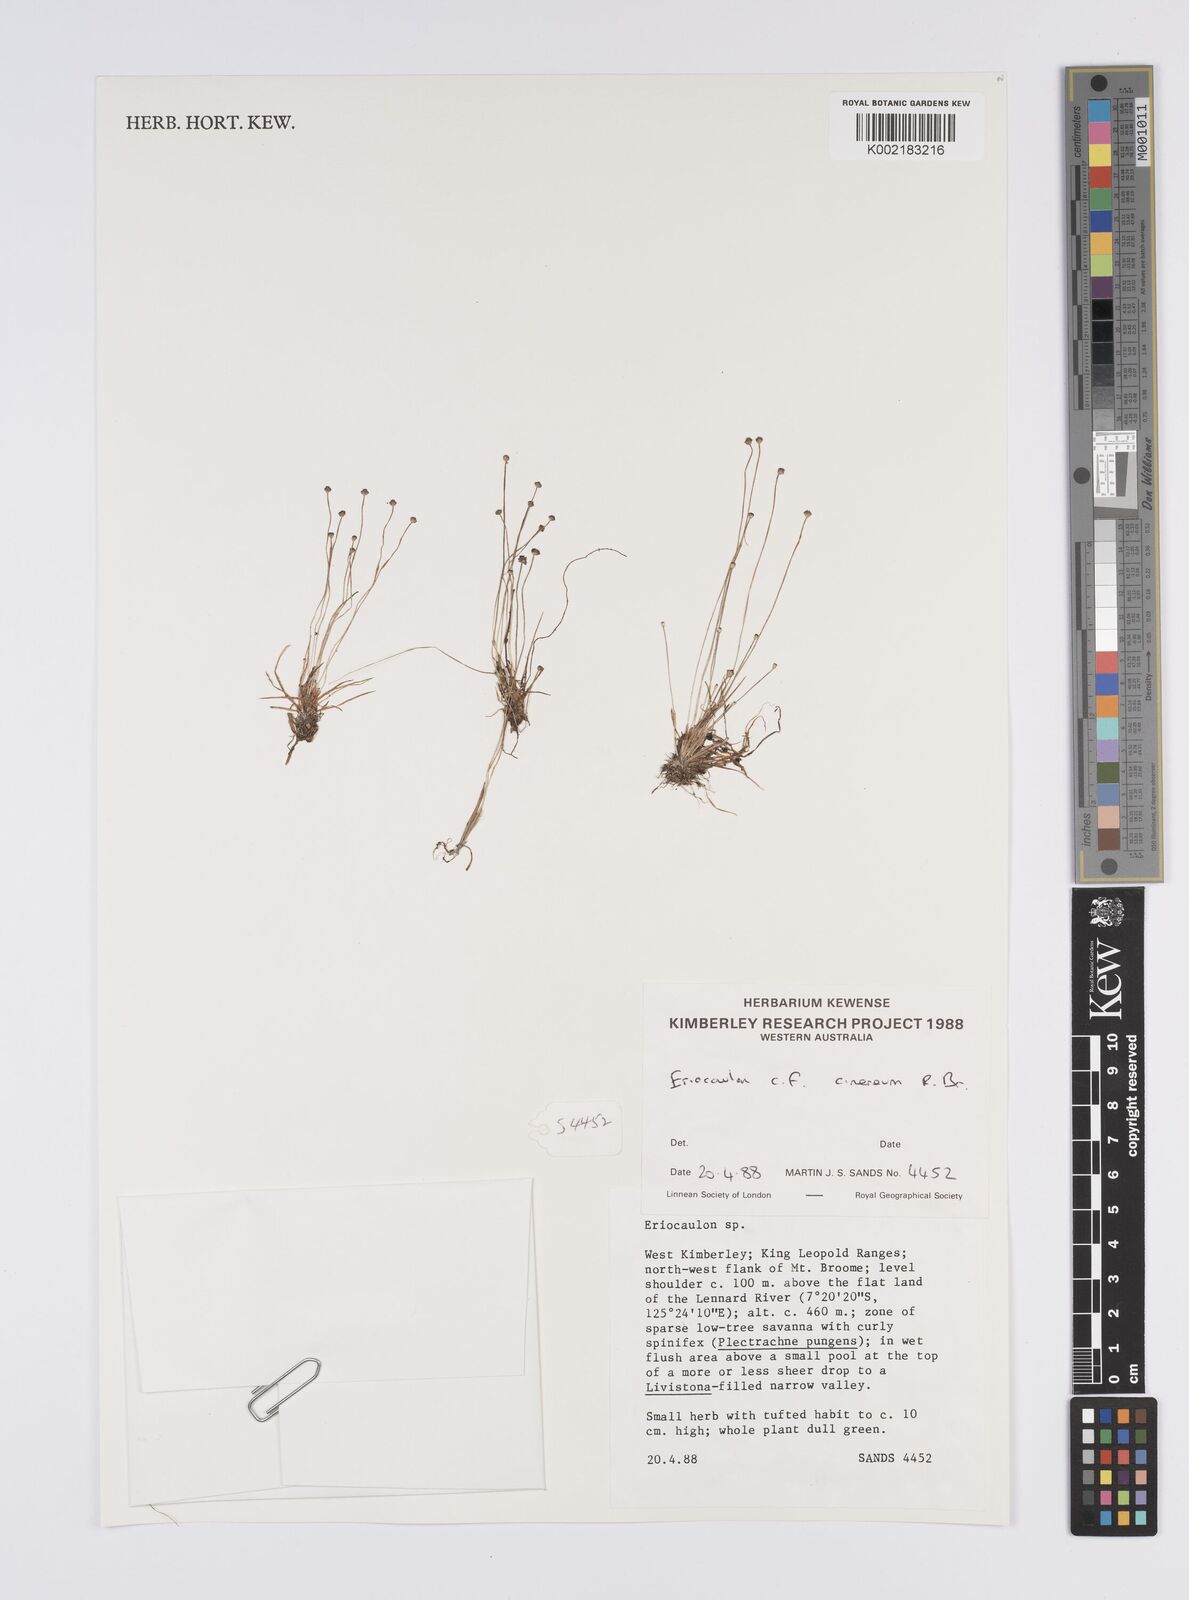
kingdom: Plantae
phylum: Tracheophyta
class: Liliopsida
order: Poales
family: Eriocaulaceae
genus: Eriocaulon
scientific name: Eriocaulon cinereum
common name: Ashy pipewort
